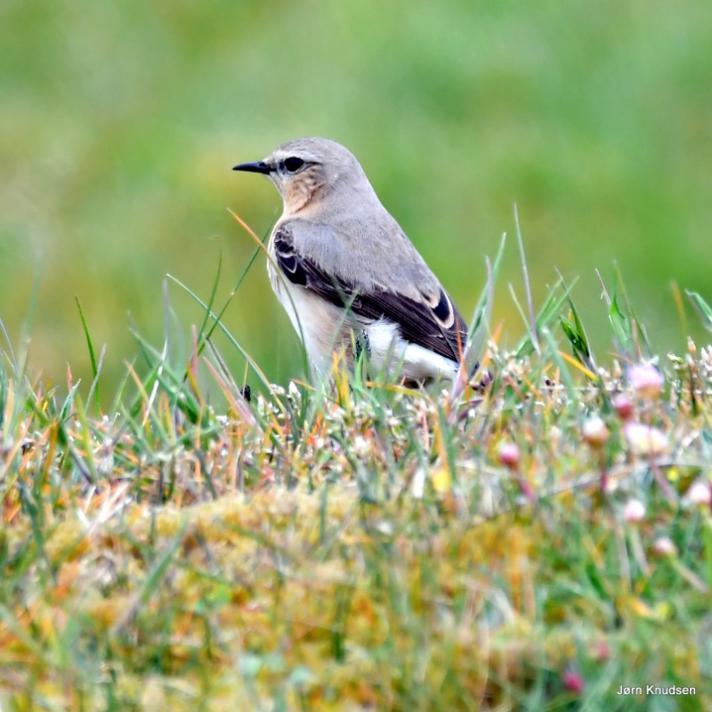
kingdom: Animalia
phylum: Chordata
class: Aves
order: Passeriformes
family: Muscicapidae
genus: Oenanthe
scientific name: Oenanthe oenanthe
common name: Stenpikker
